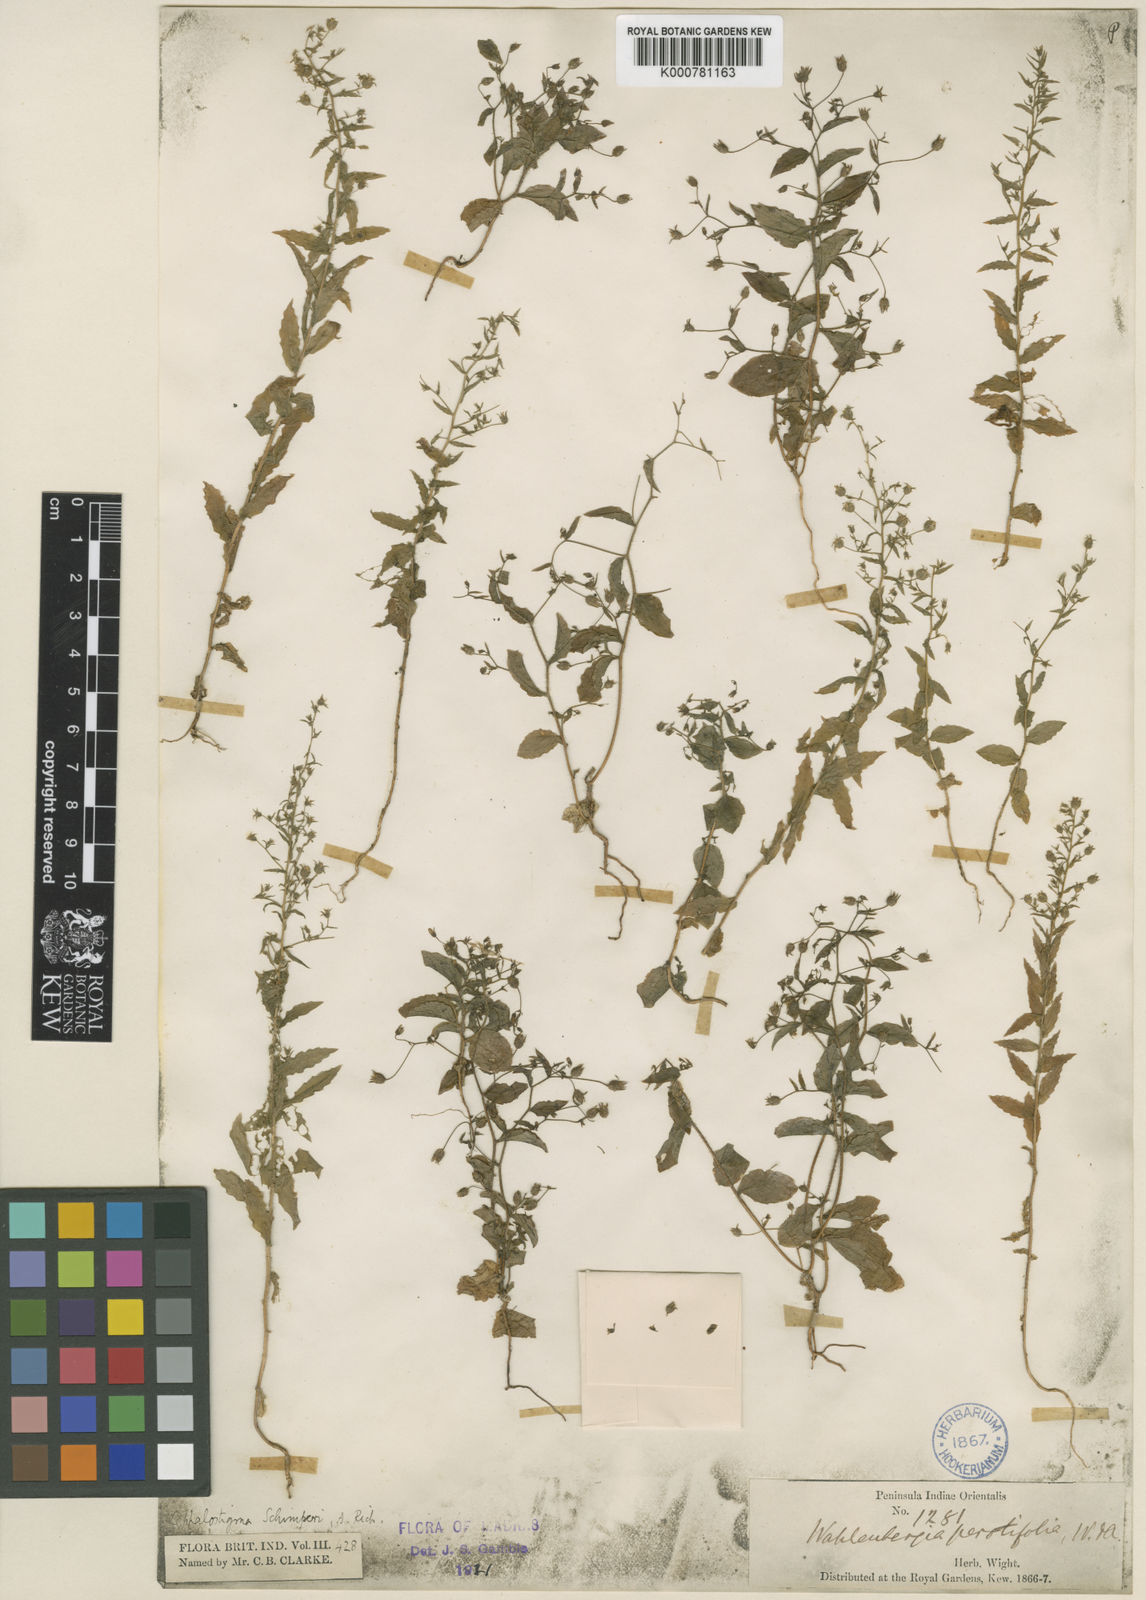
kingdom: Plantae
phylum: Tracheophyta
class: Magnoliopsida
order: Asterales
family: Campanulaceae
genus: Wahlenbergia
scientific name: Wahlenbergia erecta
